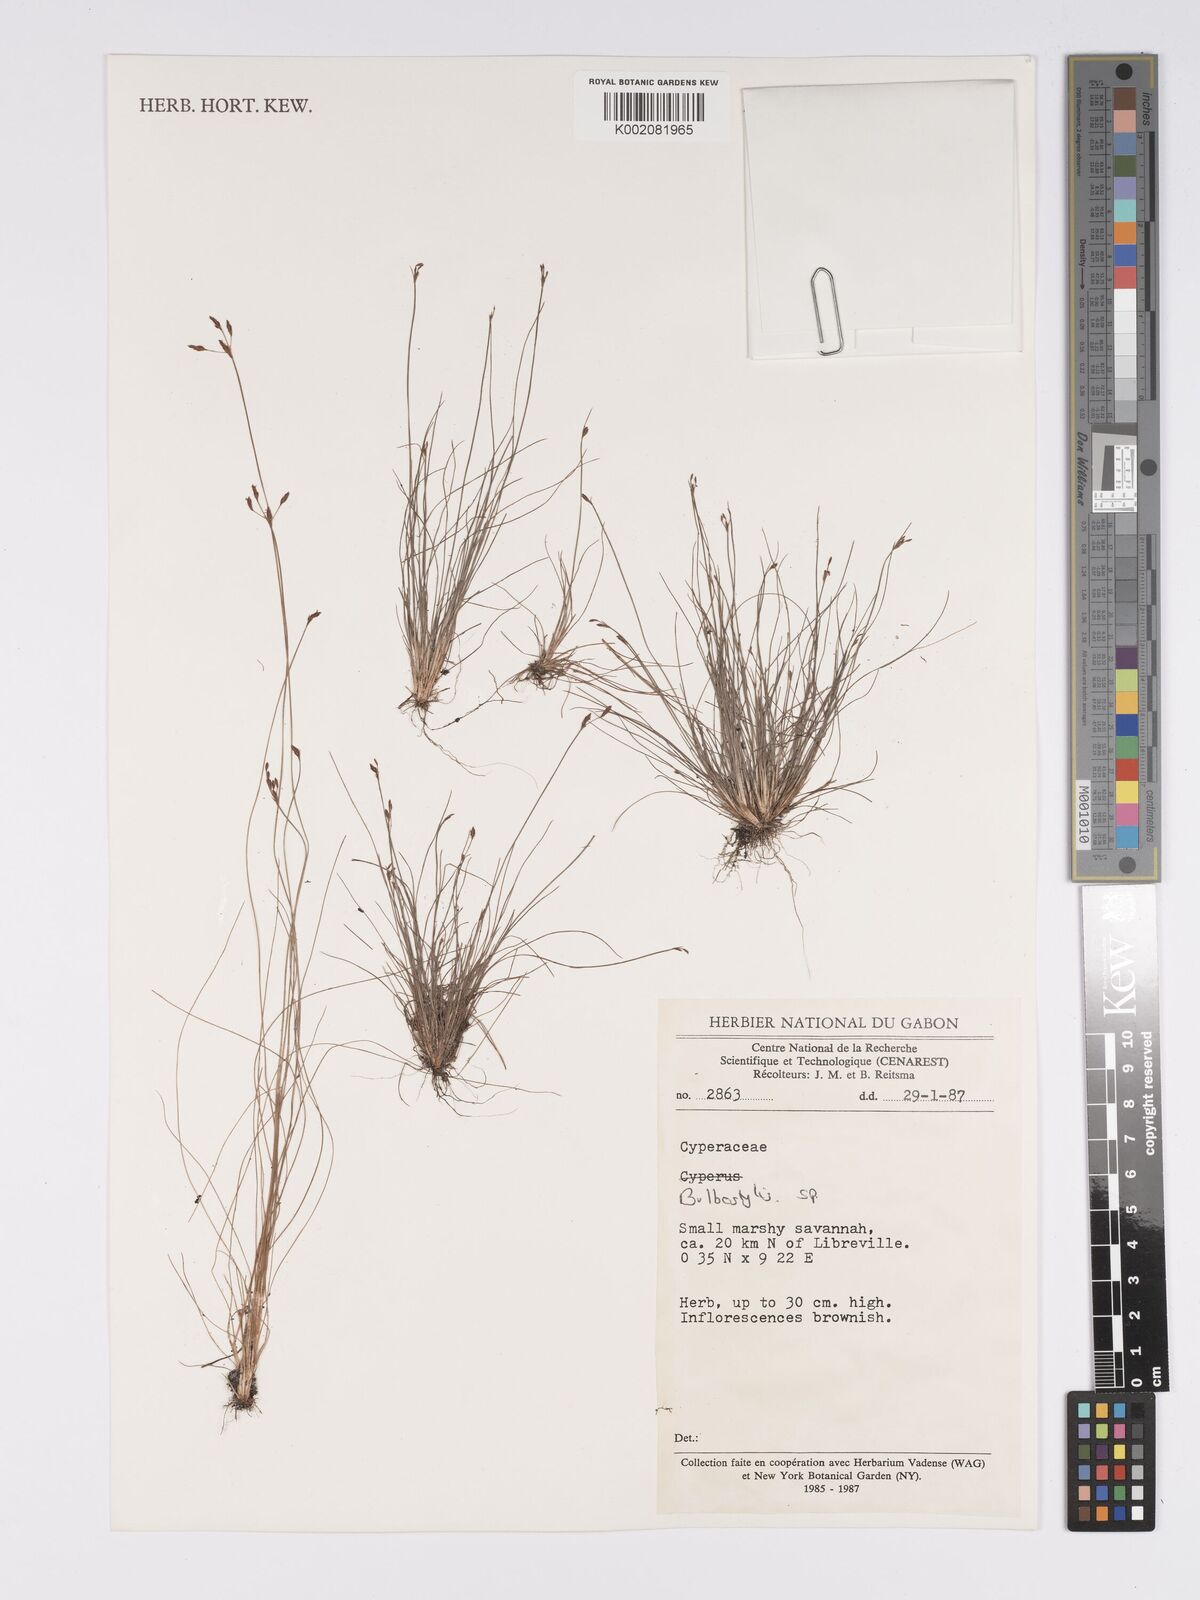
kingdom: Plantae
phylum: Tracheophyta
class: Magnoliopsida
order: Asterales
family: Asteraceae
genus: Bulbostylis
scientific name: Bulbostylis
